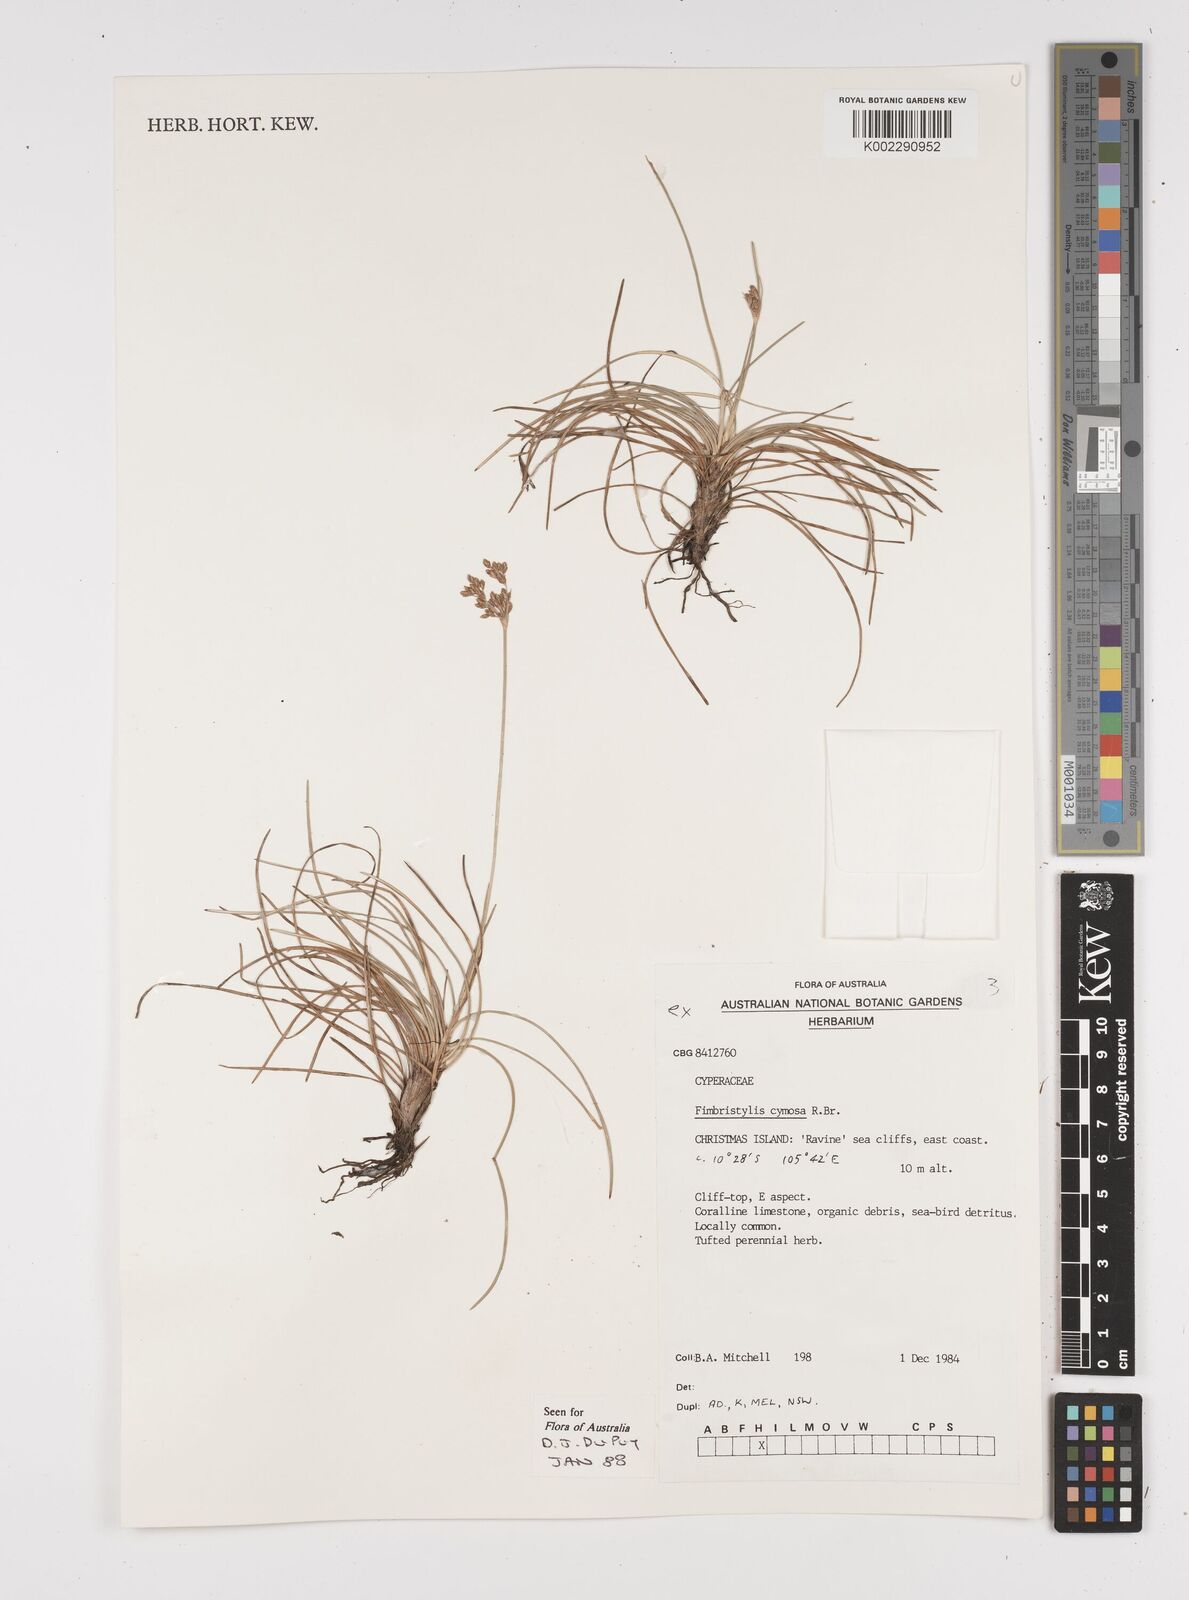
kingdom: Plantae
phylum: Tracheophyta
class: Liliopsida
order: Poales
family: Cyperaceae
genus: Fimbristylis
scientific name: Fimbristylis cymosa
